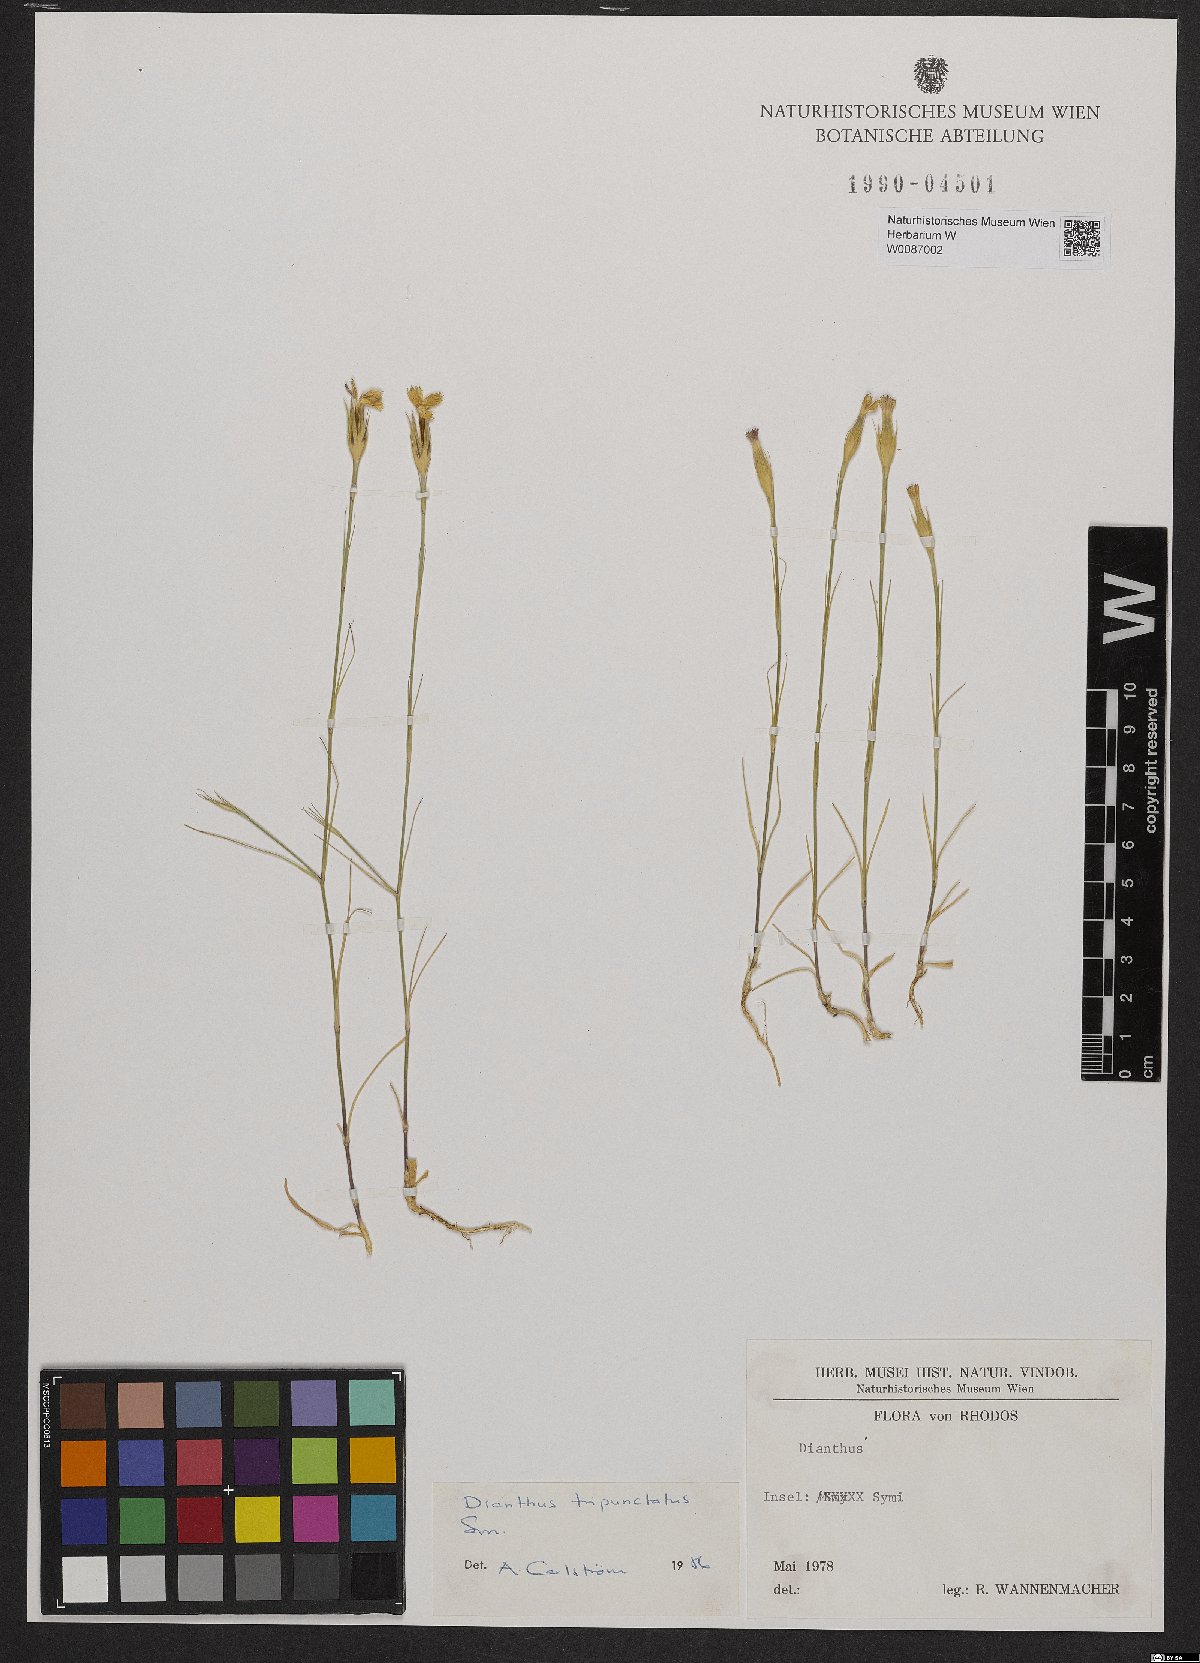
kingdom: Plantae
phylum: Tracheophyta
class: Magnoliopsida
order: Caryophyllales
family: Caryophyllaceae
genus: Dianthus
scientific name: Dianthus tripunctatus
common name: Three-spotted pink
